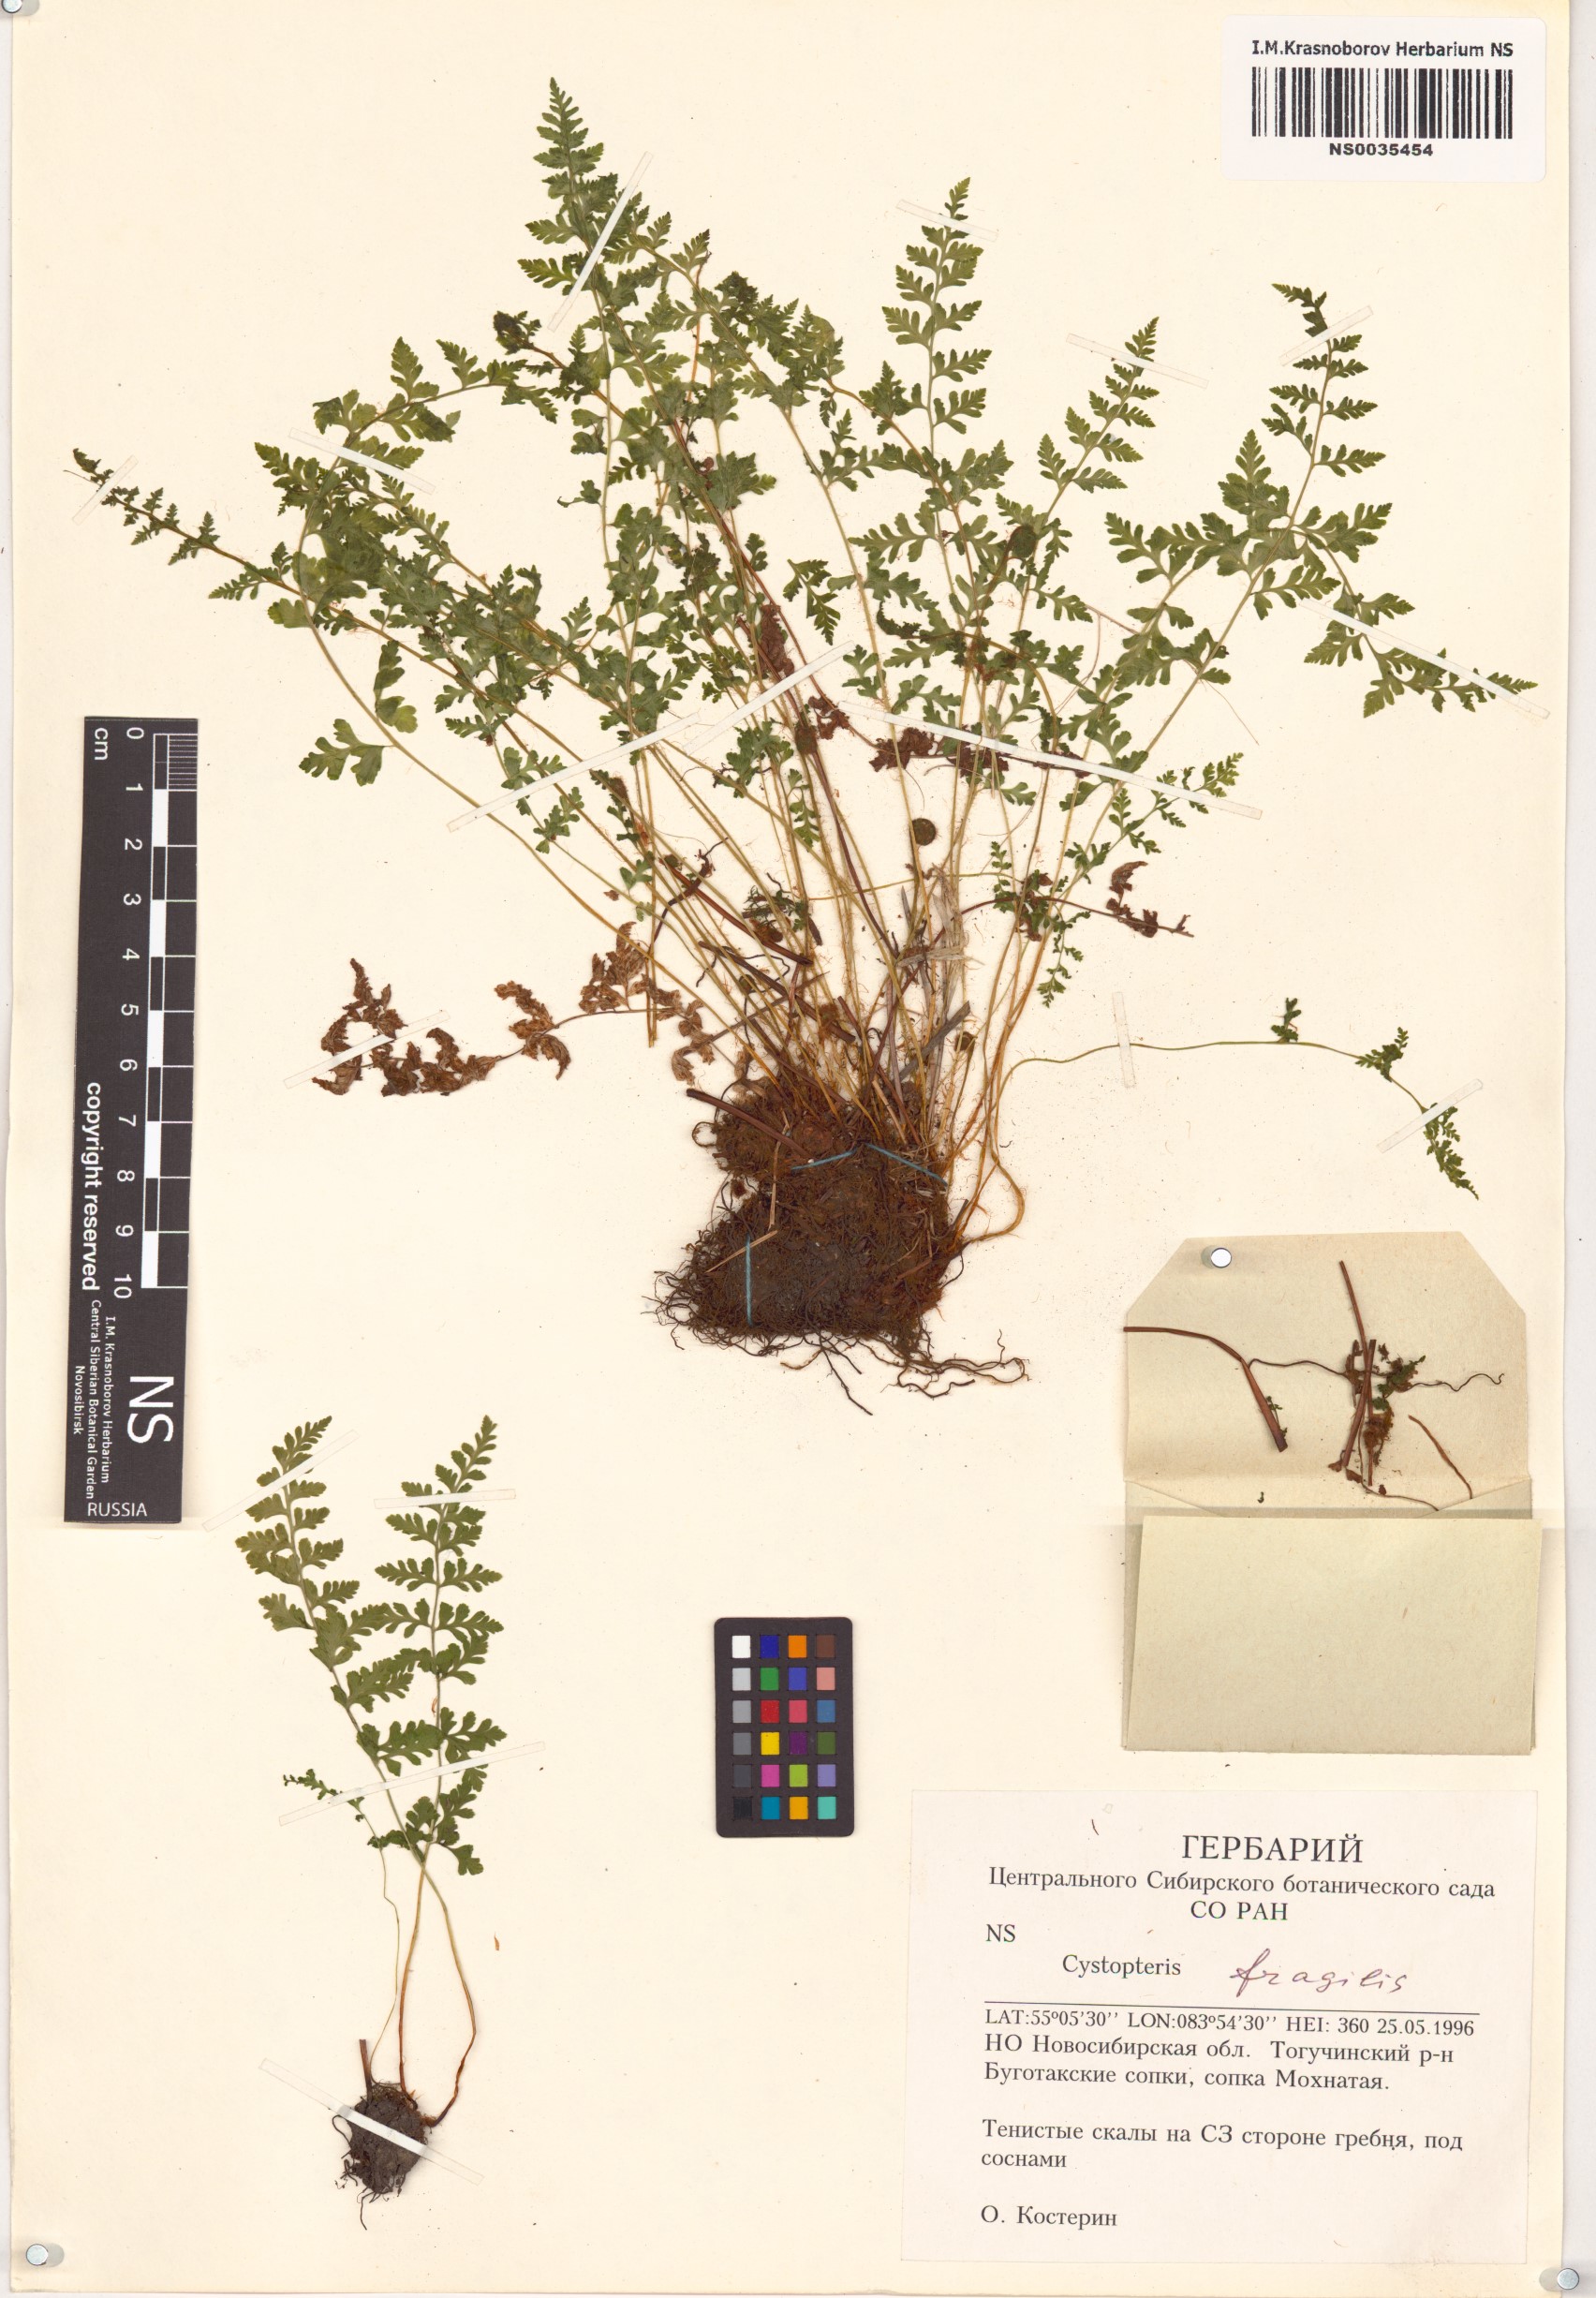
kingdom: Plantae
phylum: Tracheophyta
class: Polypodiopsida
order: Polypodiales
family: Cystopteridaceae
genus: Cystopteris
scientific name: Cystopteris fragilis
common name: Brittle bladder fern
